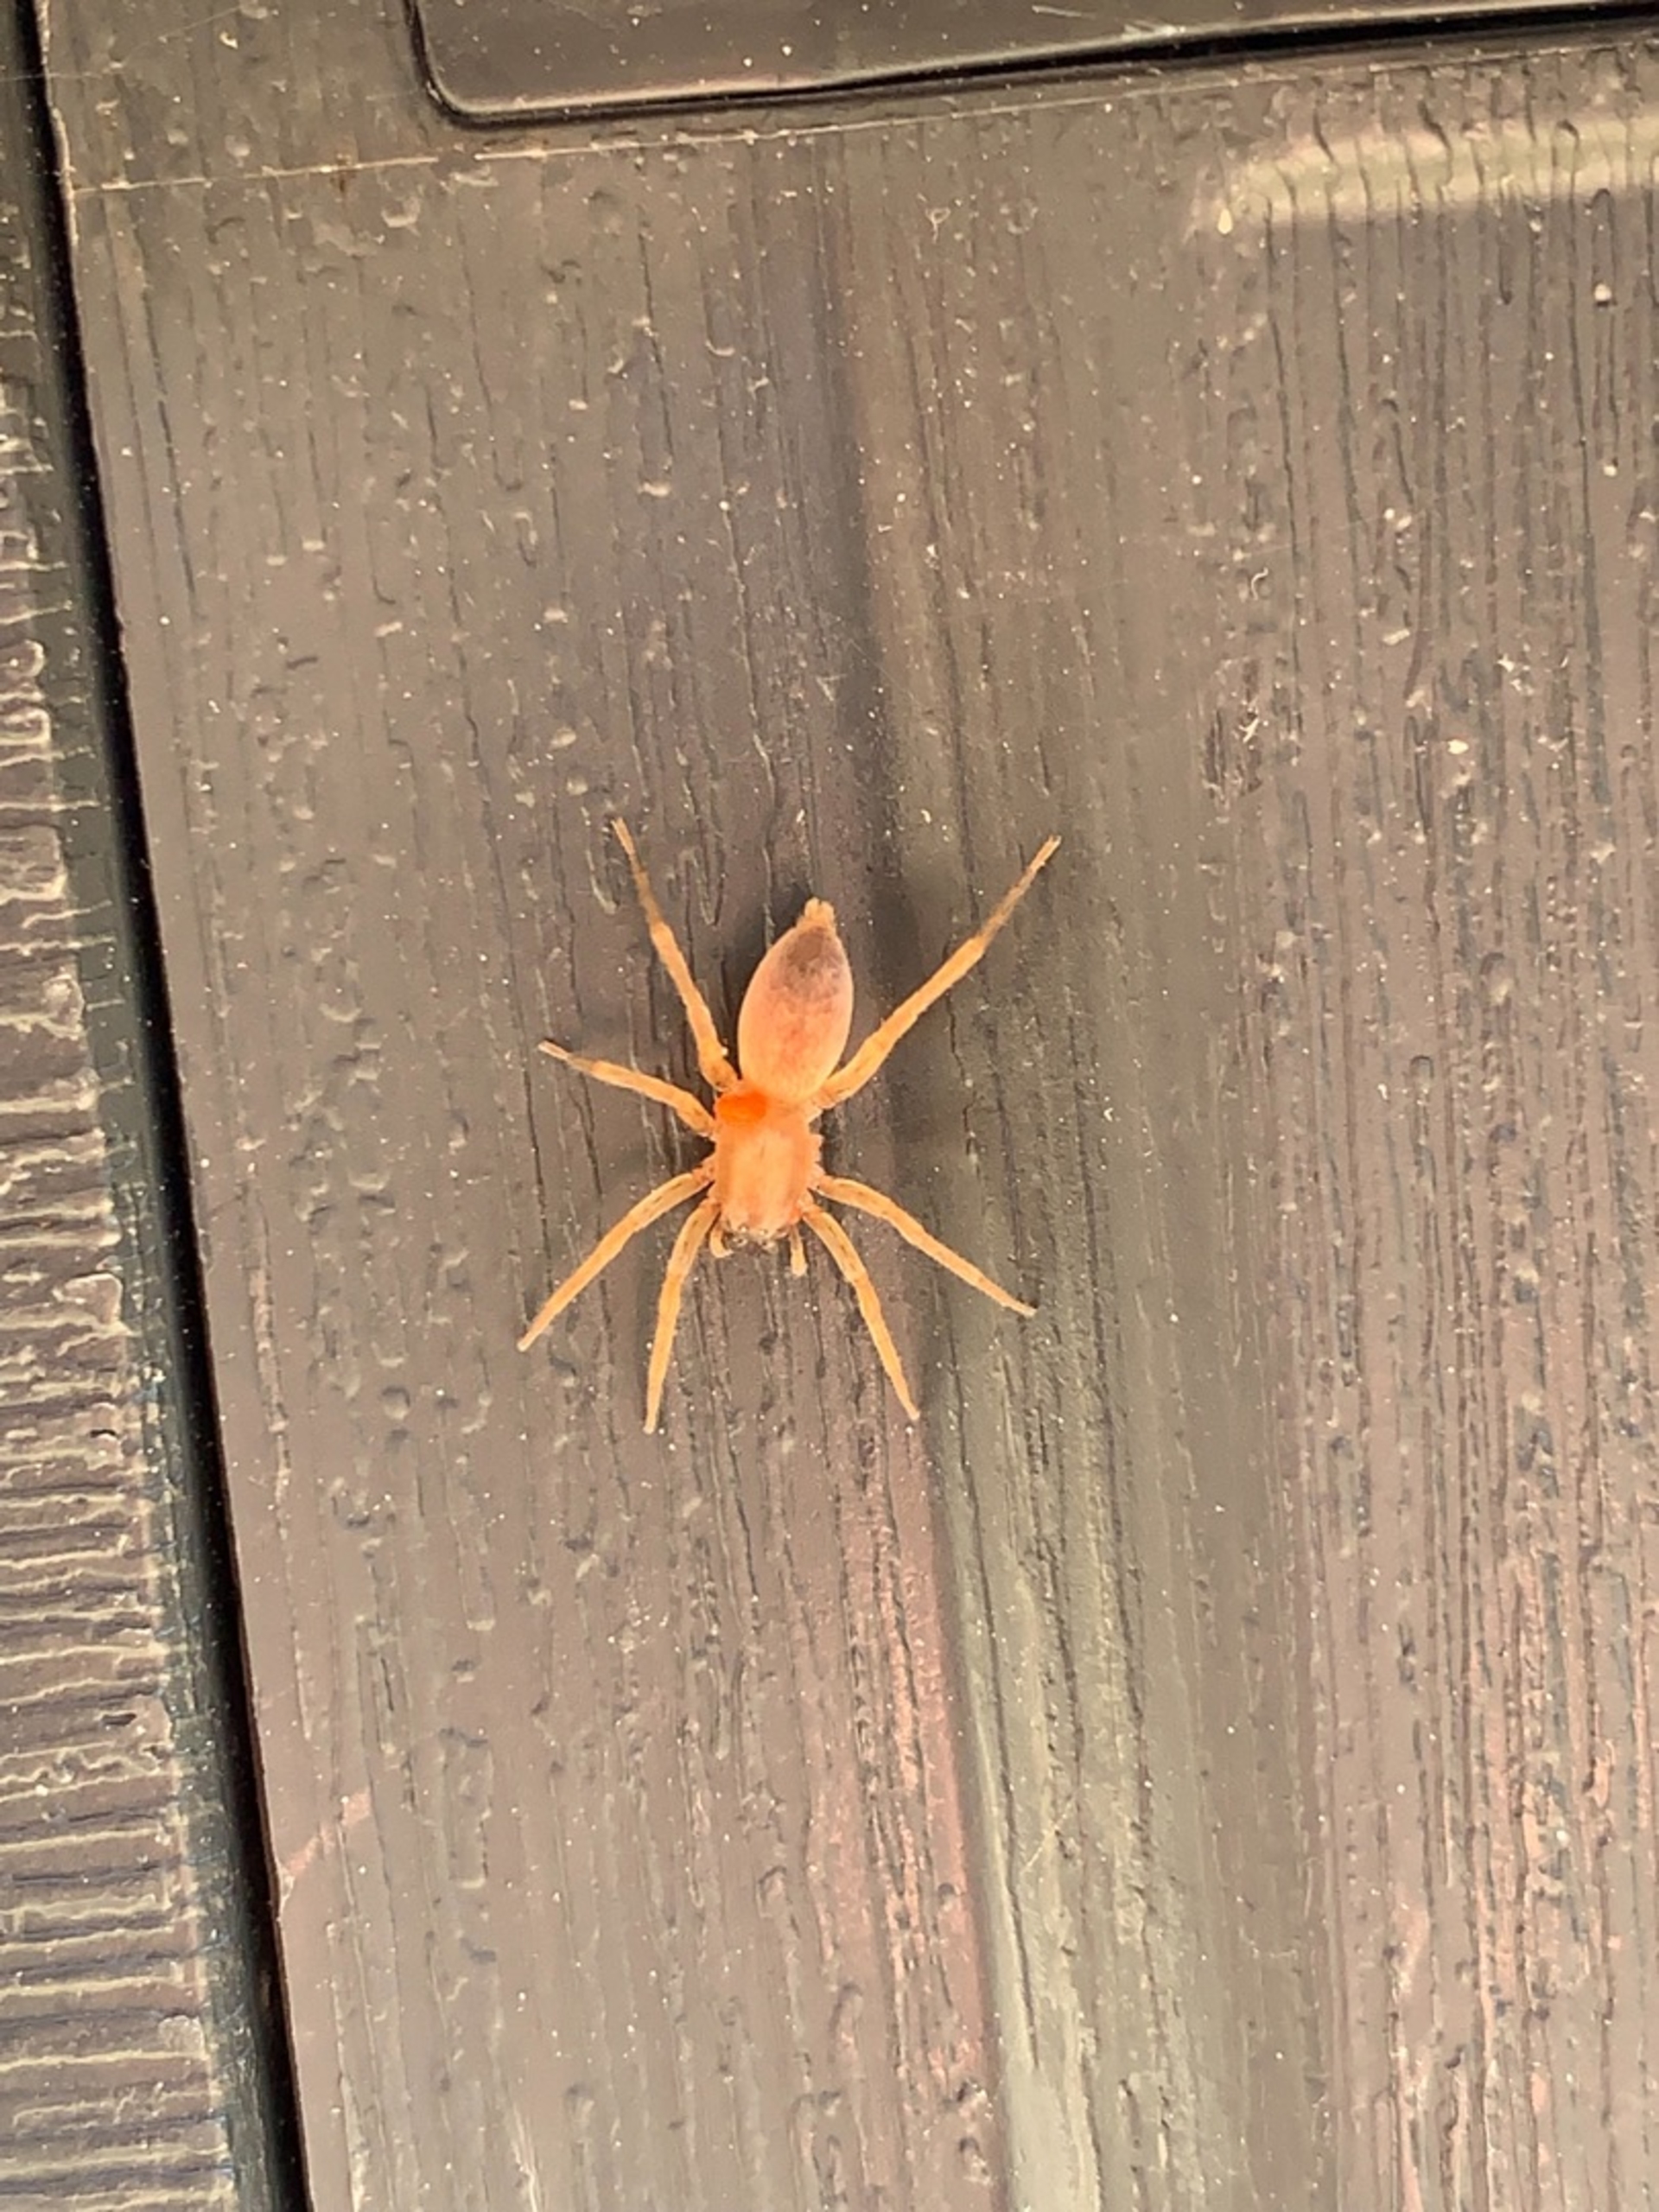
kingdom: Animalia
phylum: Arthropoda
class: Arachnida
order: Araneae
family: Clubionidae
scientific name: Clubionidae
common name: Sækspindere
